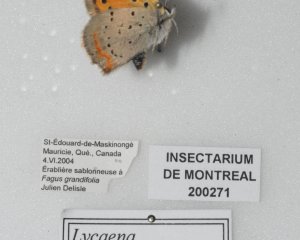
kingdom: Animalia
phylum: Arthropoda
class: Insecta
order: Lepidoptera
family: Lycaenidae
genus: Lycaena
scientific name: Lycaena phlaeas
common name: American Copper
